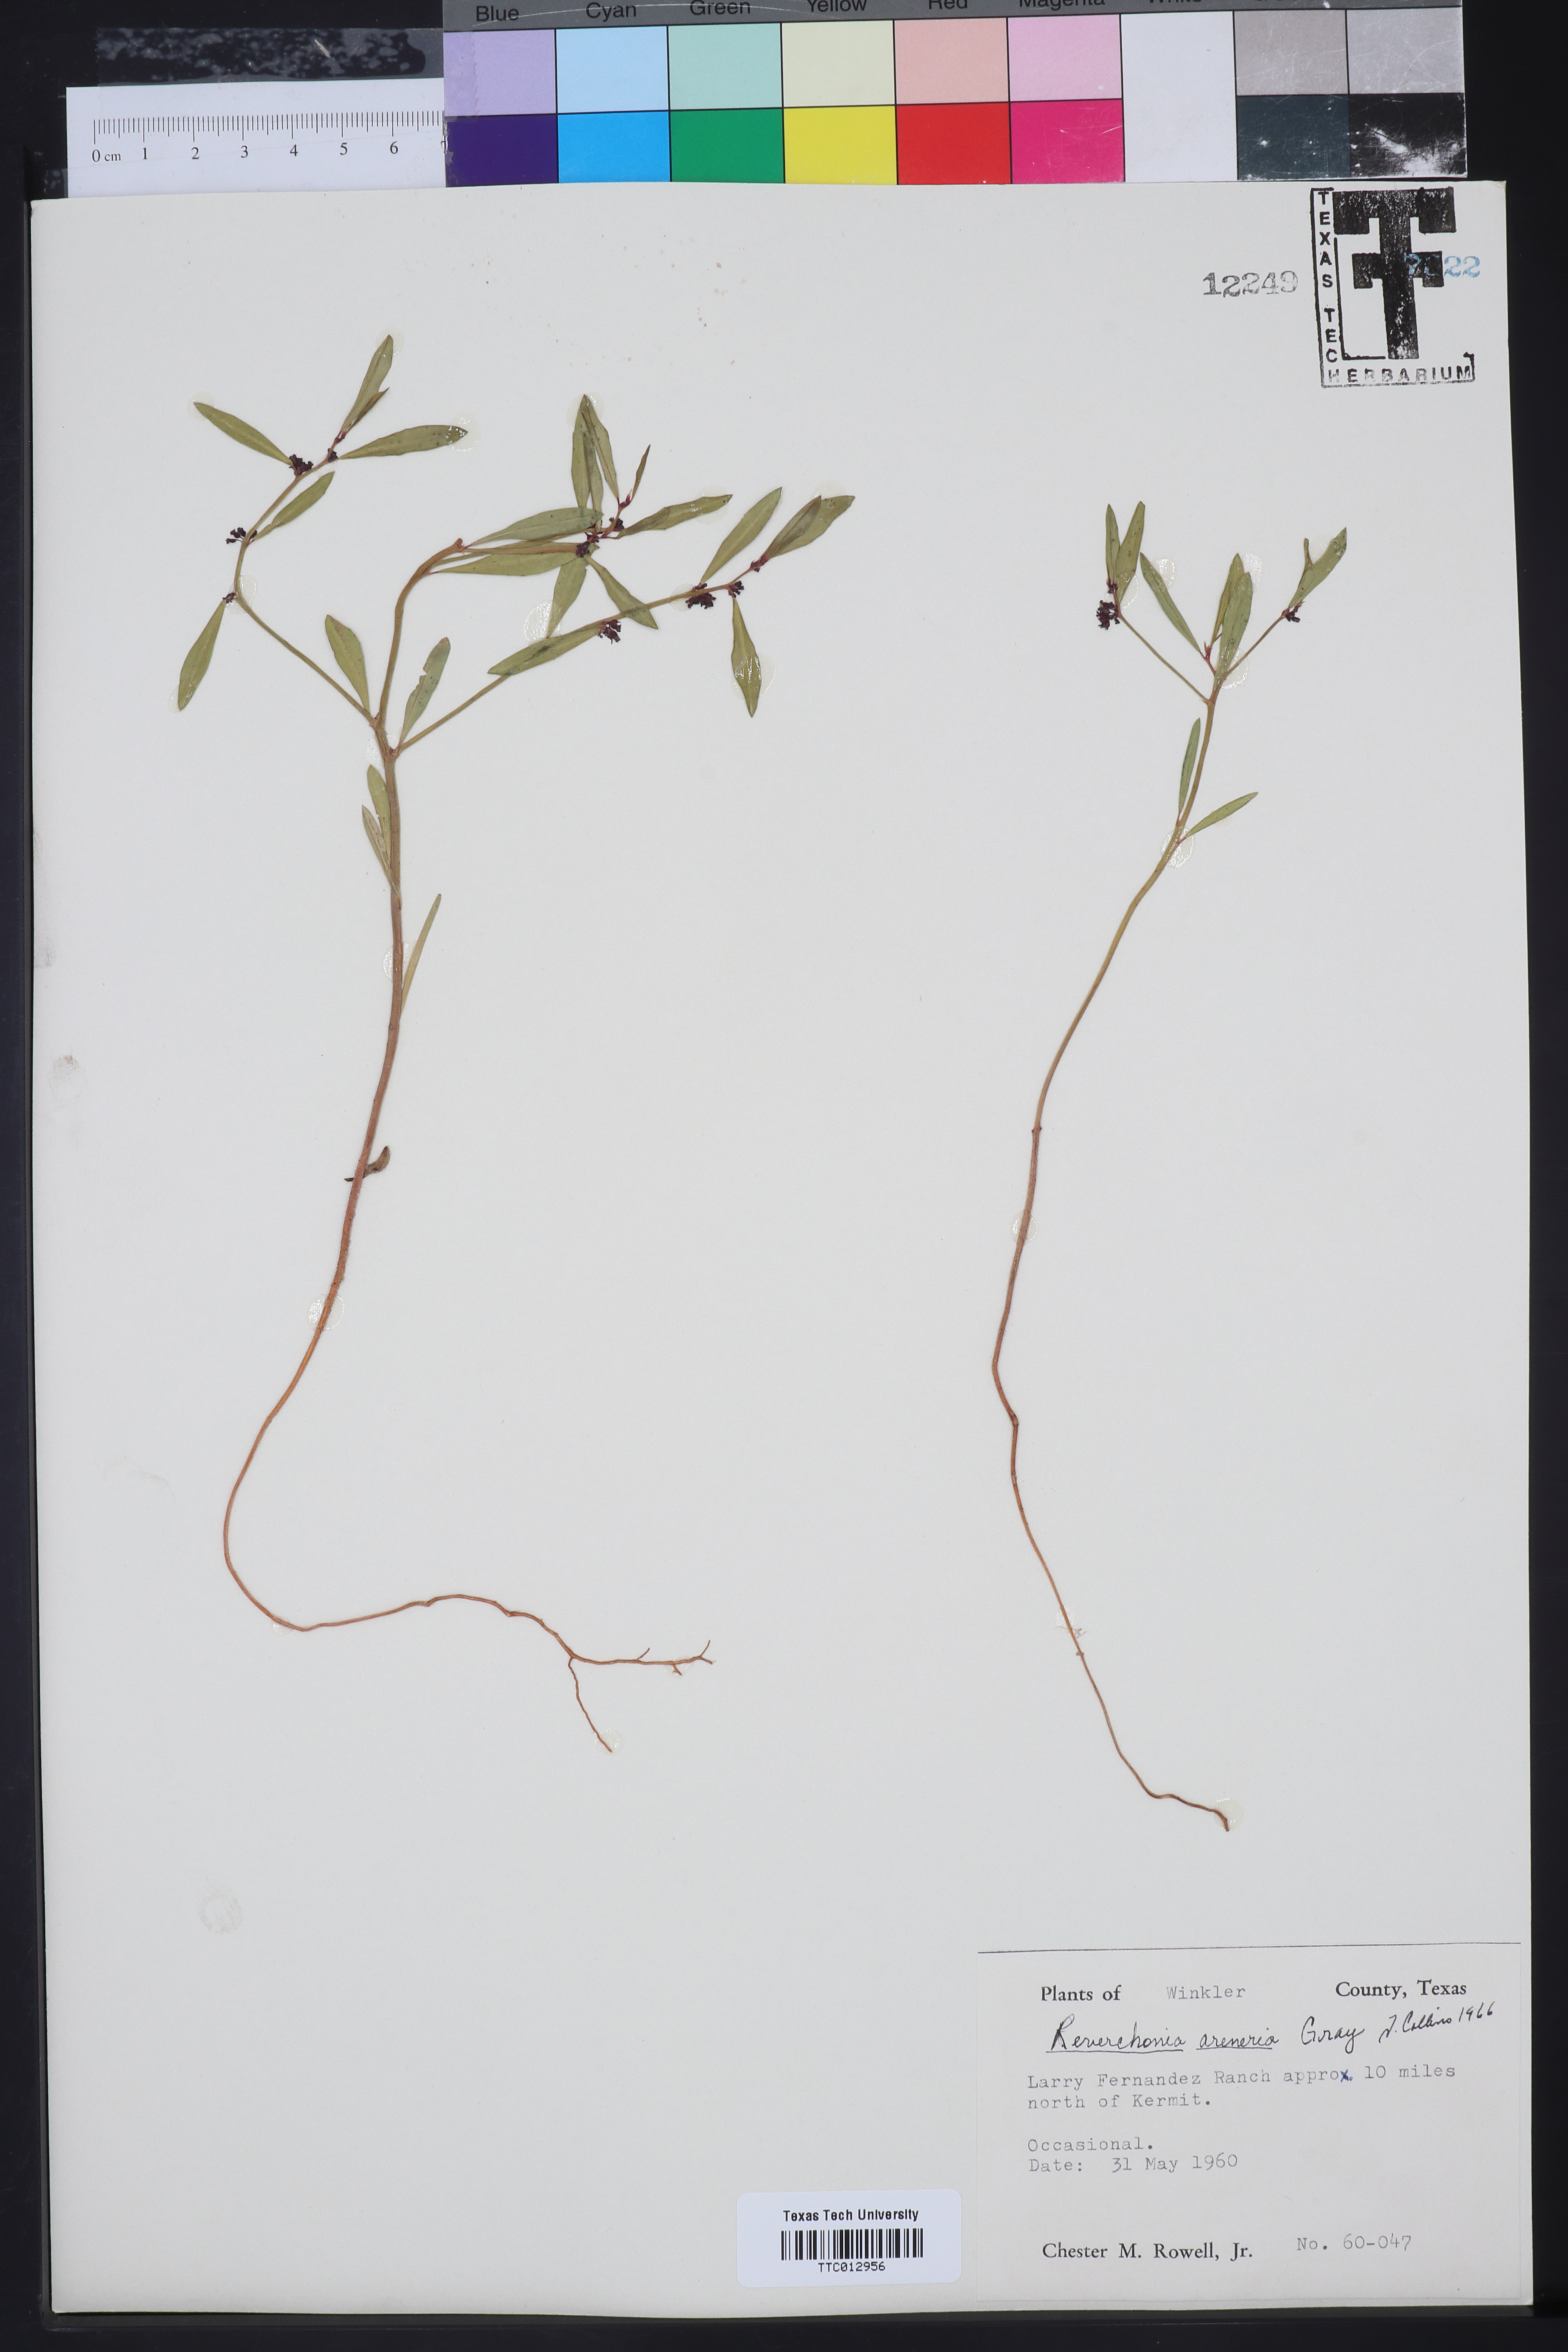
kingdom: Plantae
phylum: Tracheophyta
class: Magnoliopsida
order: Malpighiales
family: Phyllanthaceae
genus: Phyllanthus
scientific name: Phyllanthus warnockii
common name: Sand reverchonia
